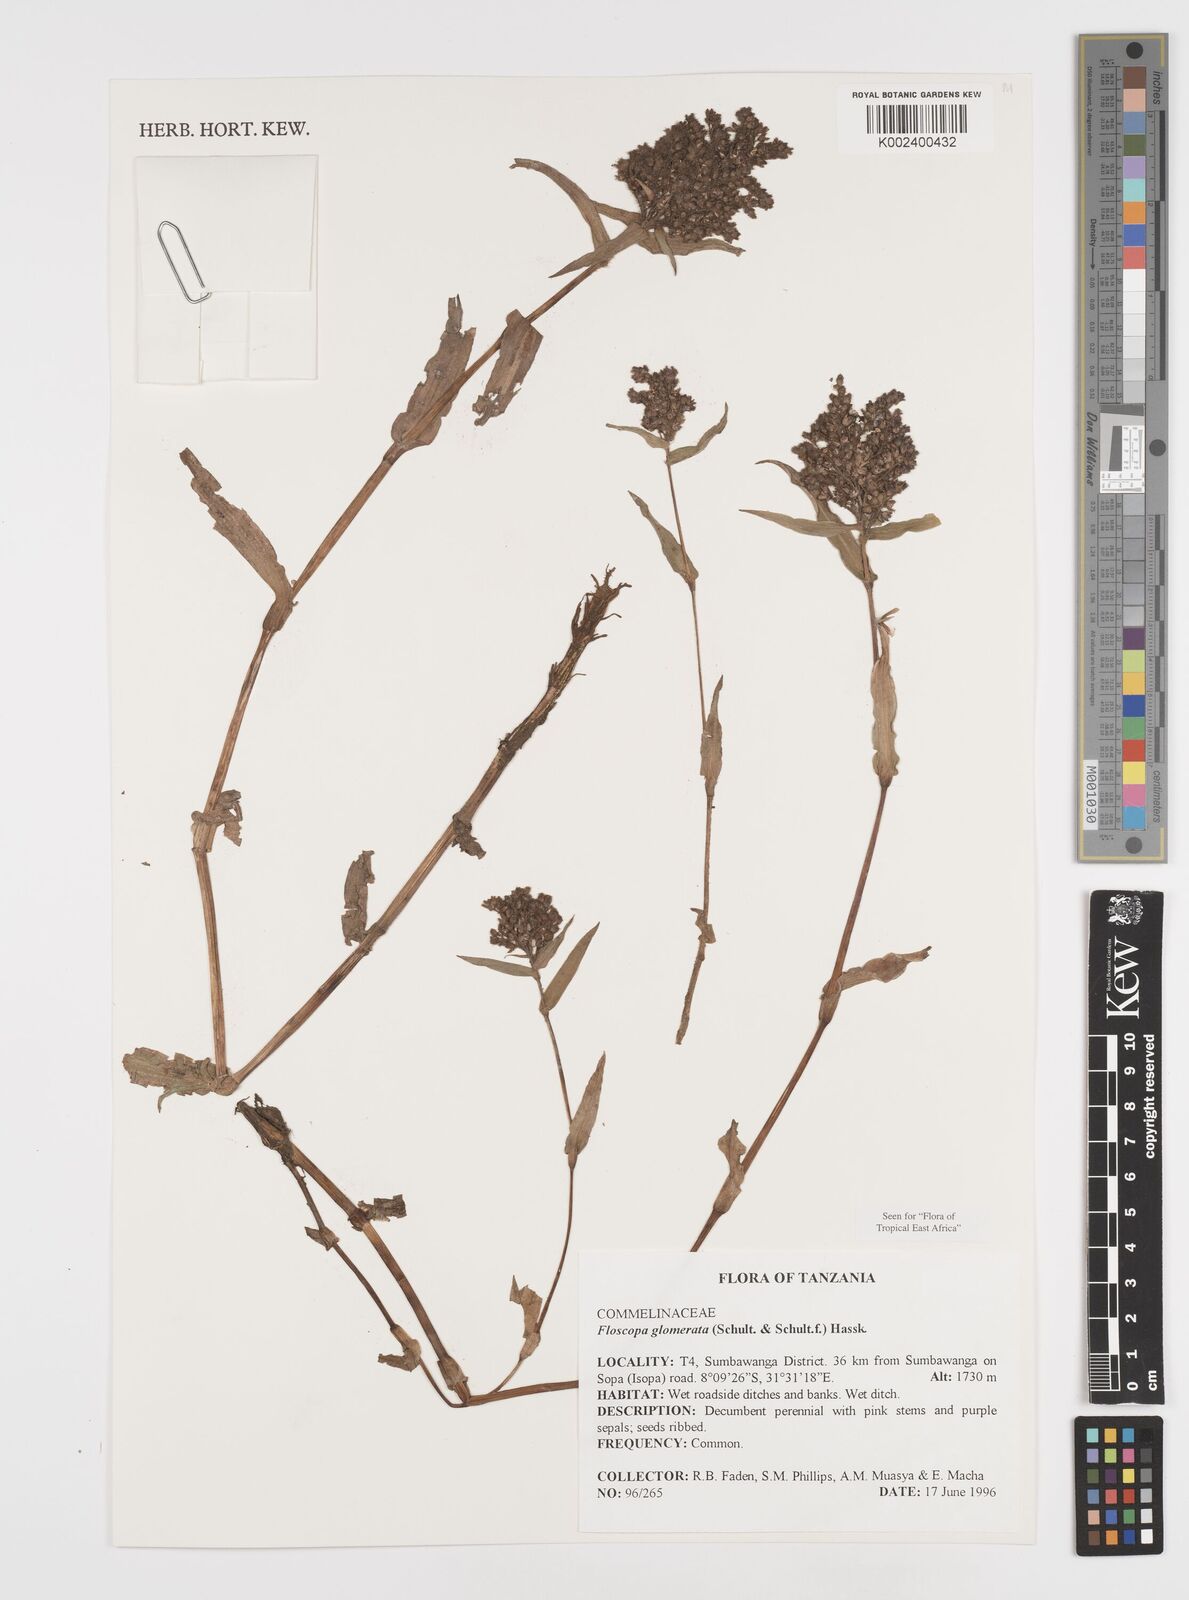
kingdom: Plantae
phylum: Tracheophyta
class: Liliopsida
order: Commelinales
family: Commelinaceae
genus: Floscopa
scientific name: Floscopa glomerata
